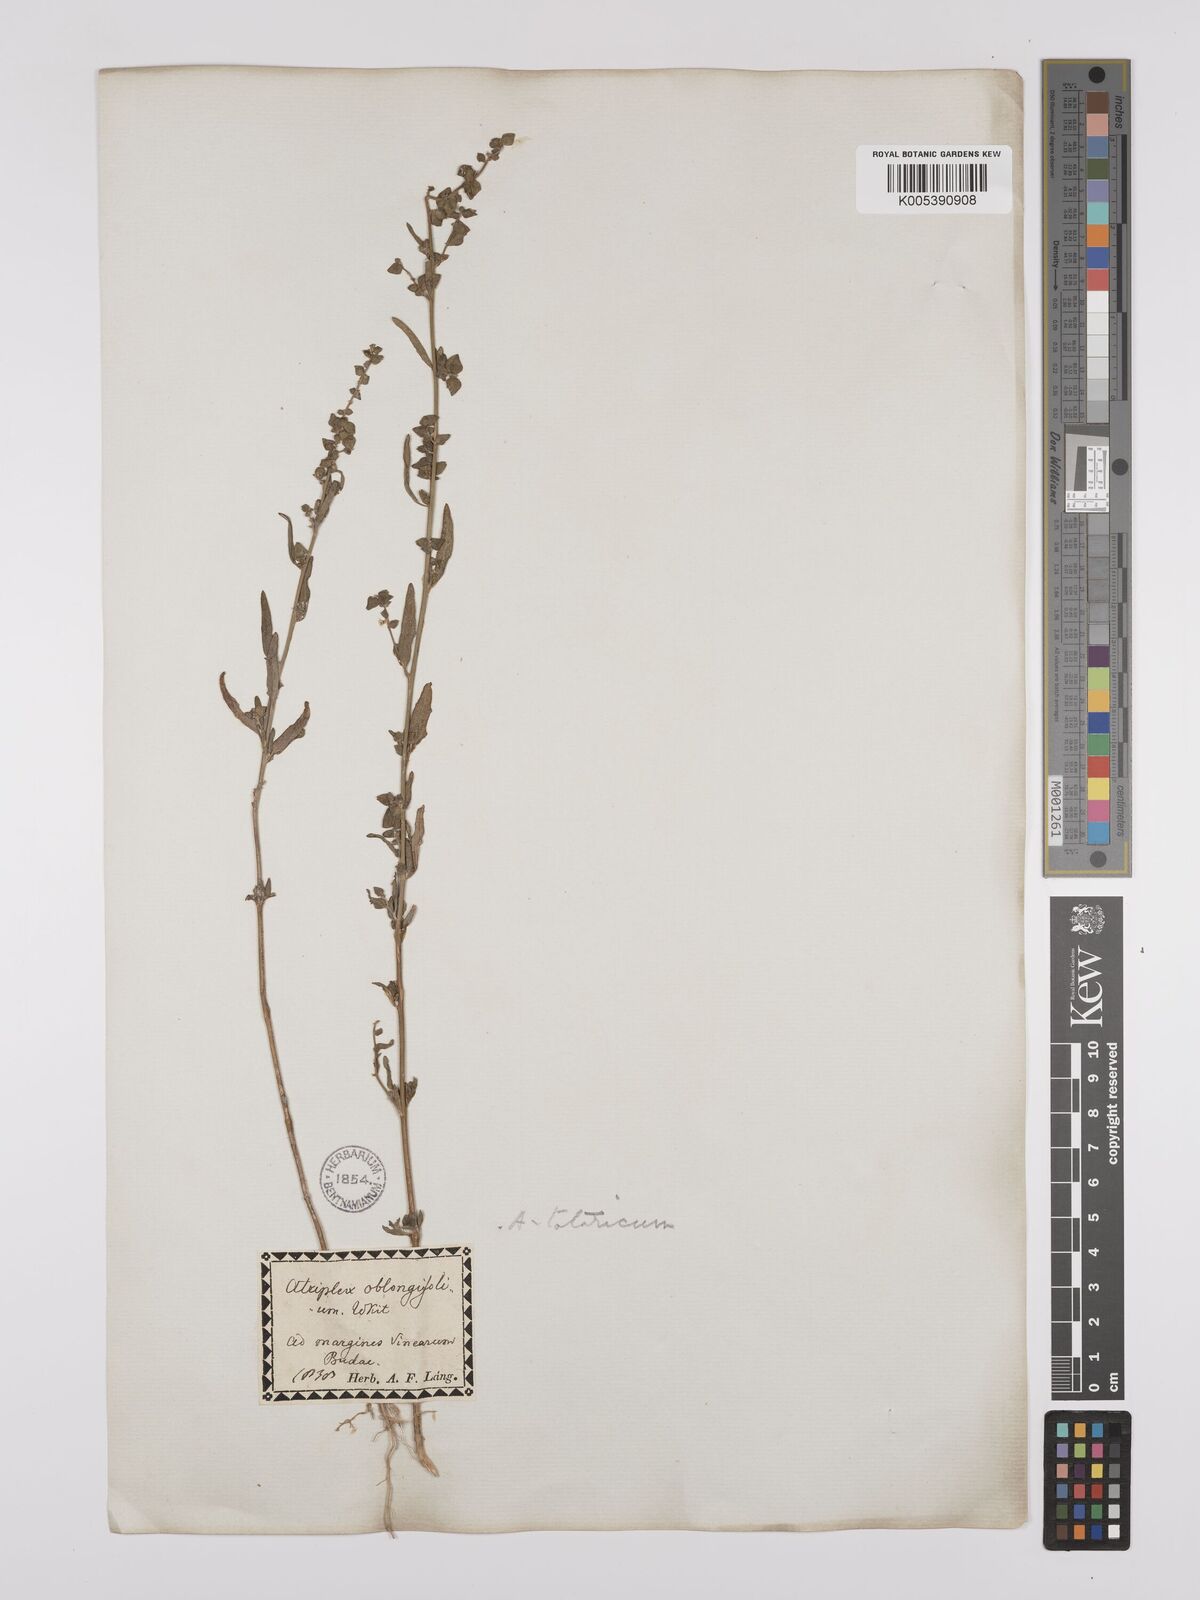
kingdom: Plantae
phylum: Tracheophyta
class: Magnoliopsida
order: Caryophyllales
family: Amaranthaceae
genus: Atriplex
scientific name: Atriplex
